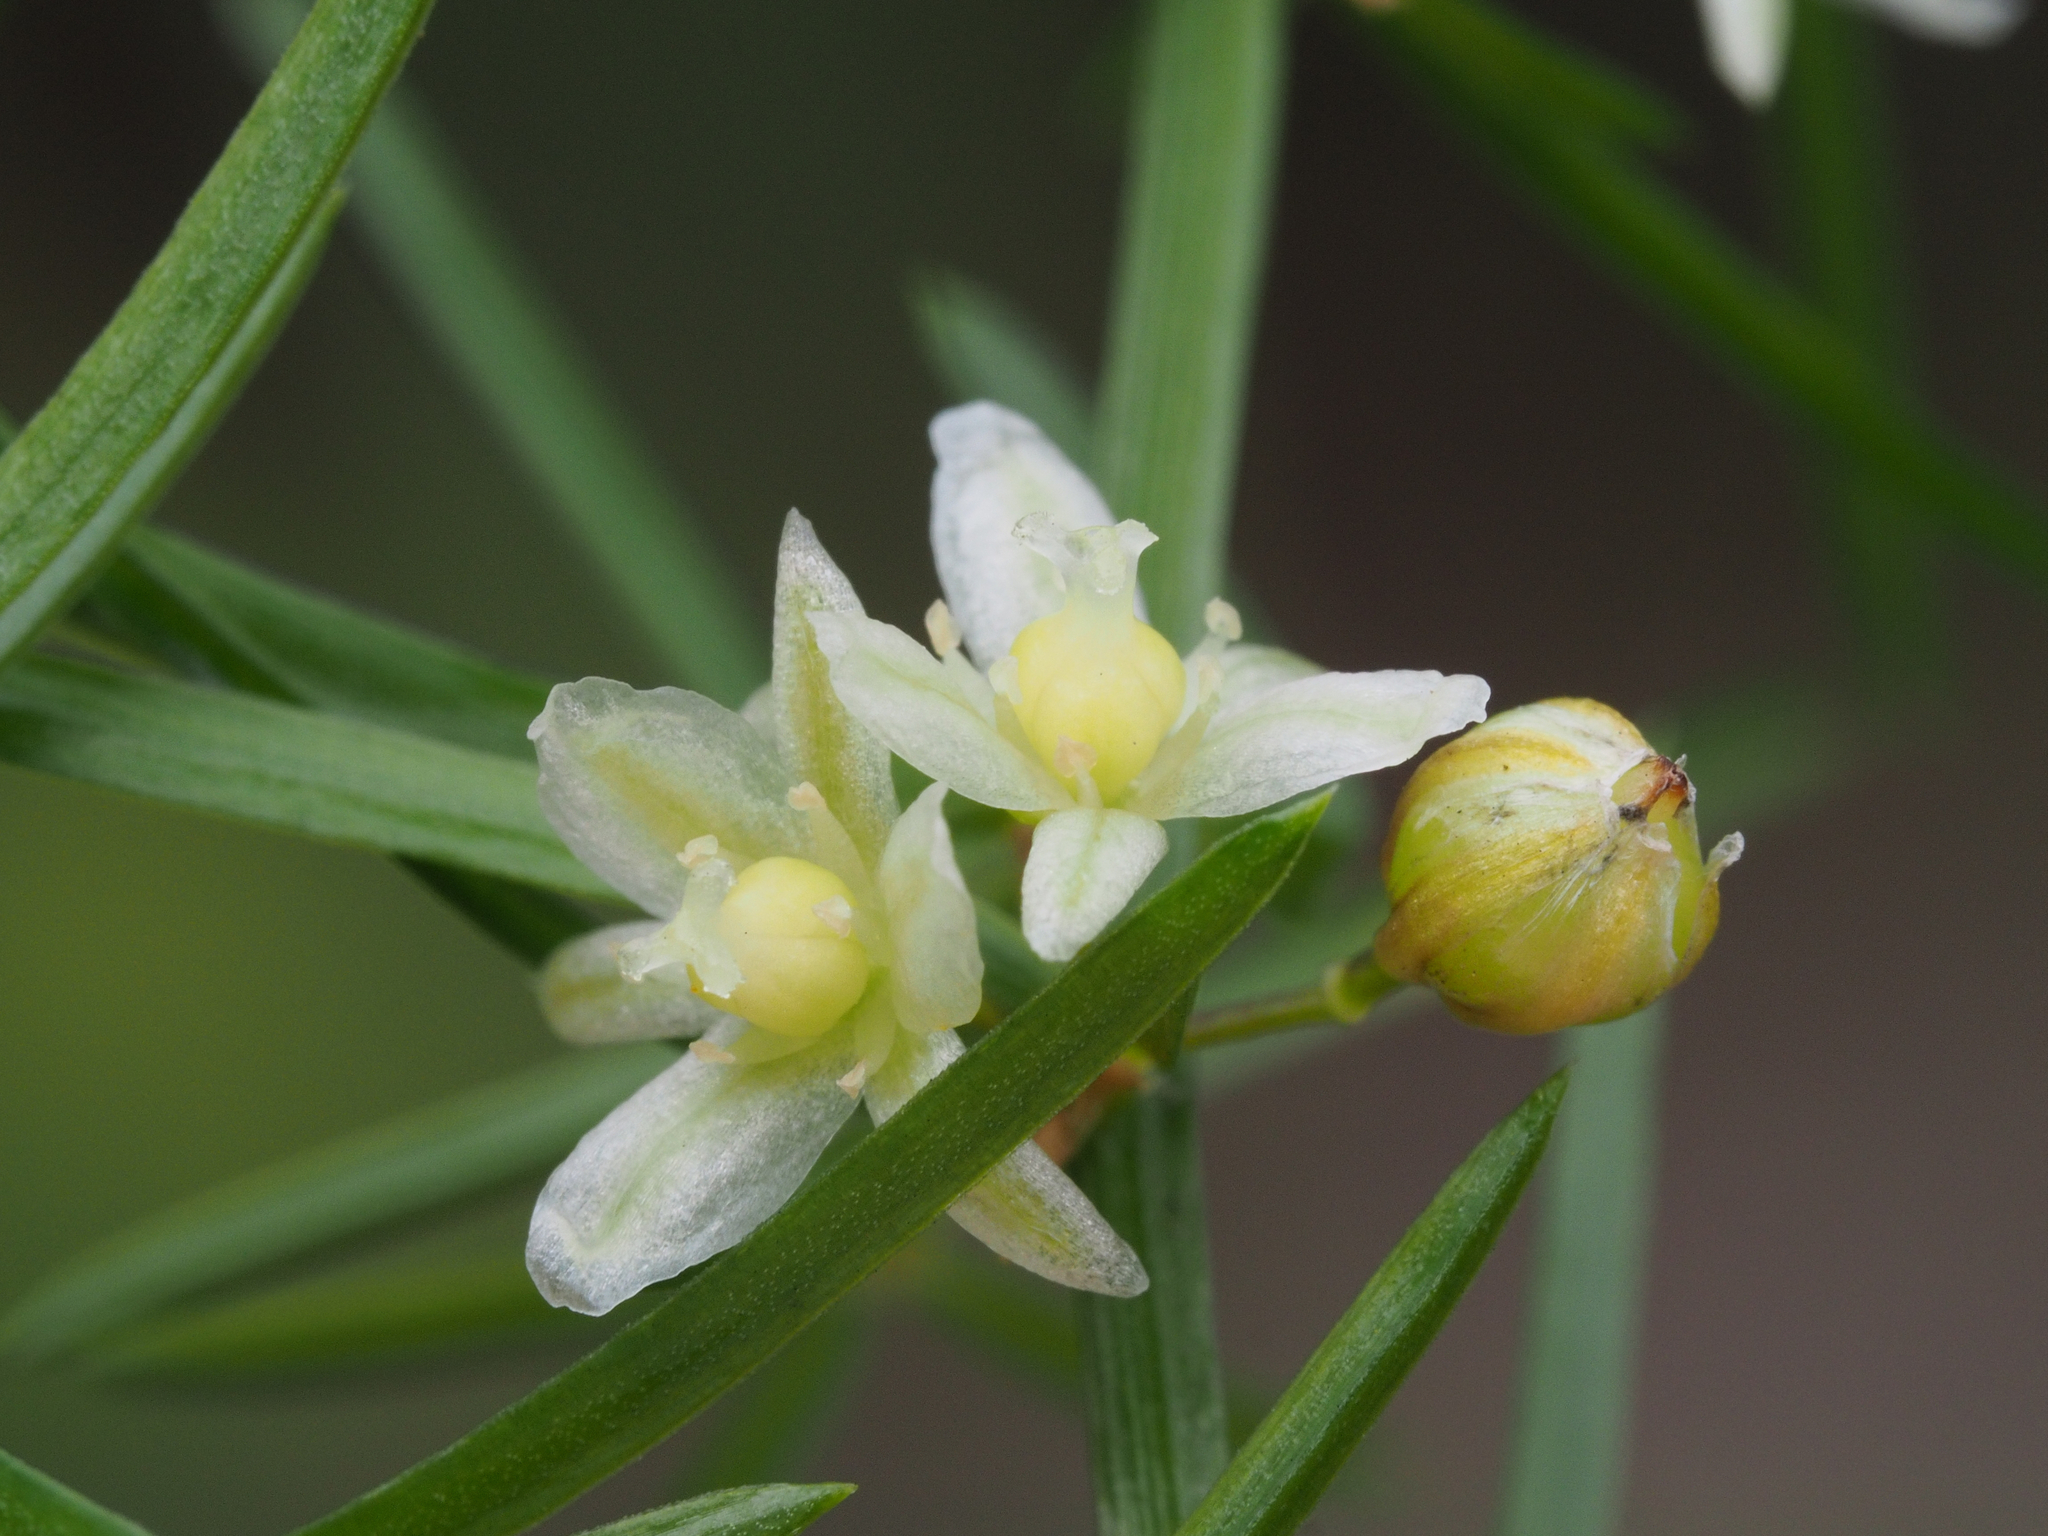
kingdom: Plantae
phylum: Tracheophyta
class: Liliopsida
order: Asparagales
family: Asparagaceae
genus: Asparagus
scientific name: Asparagus cochinchinensis
